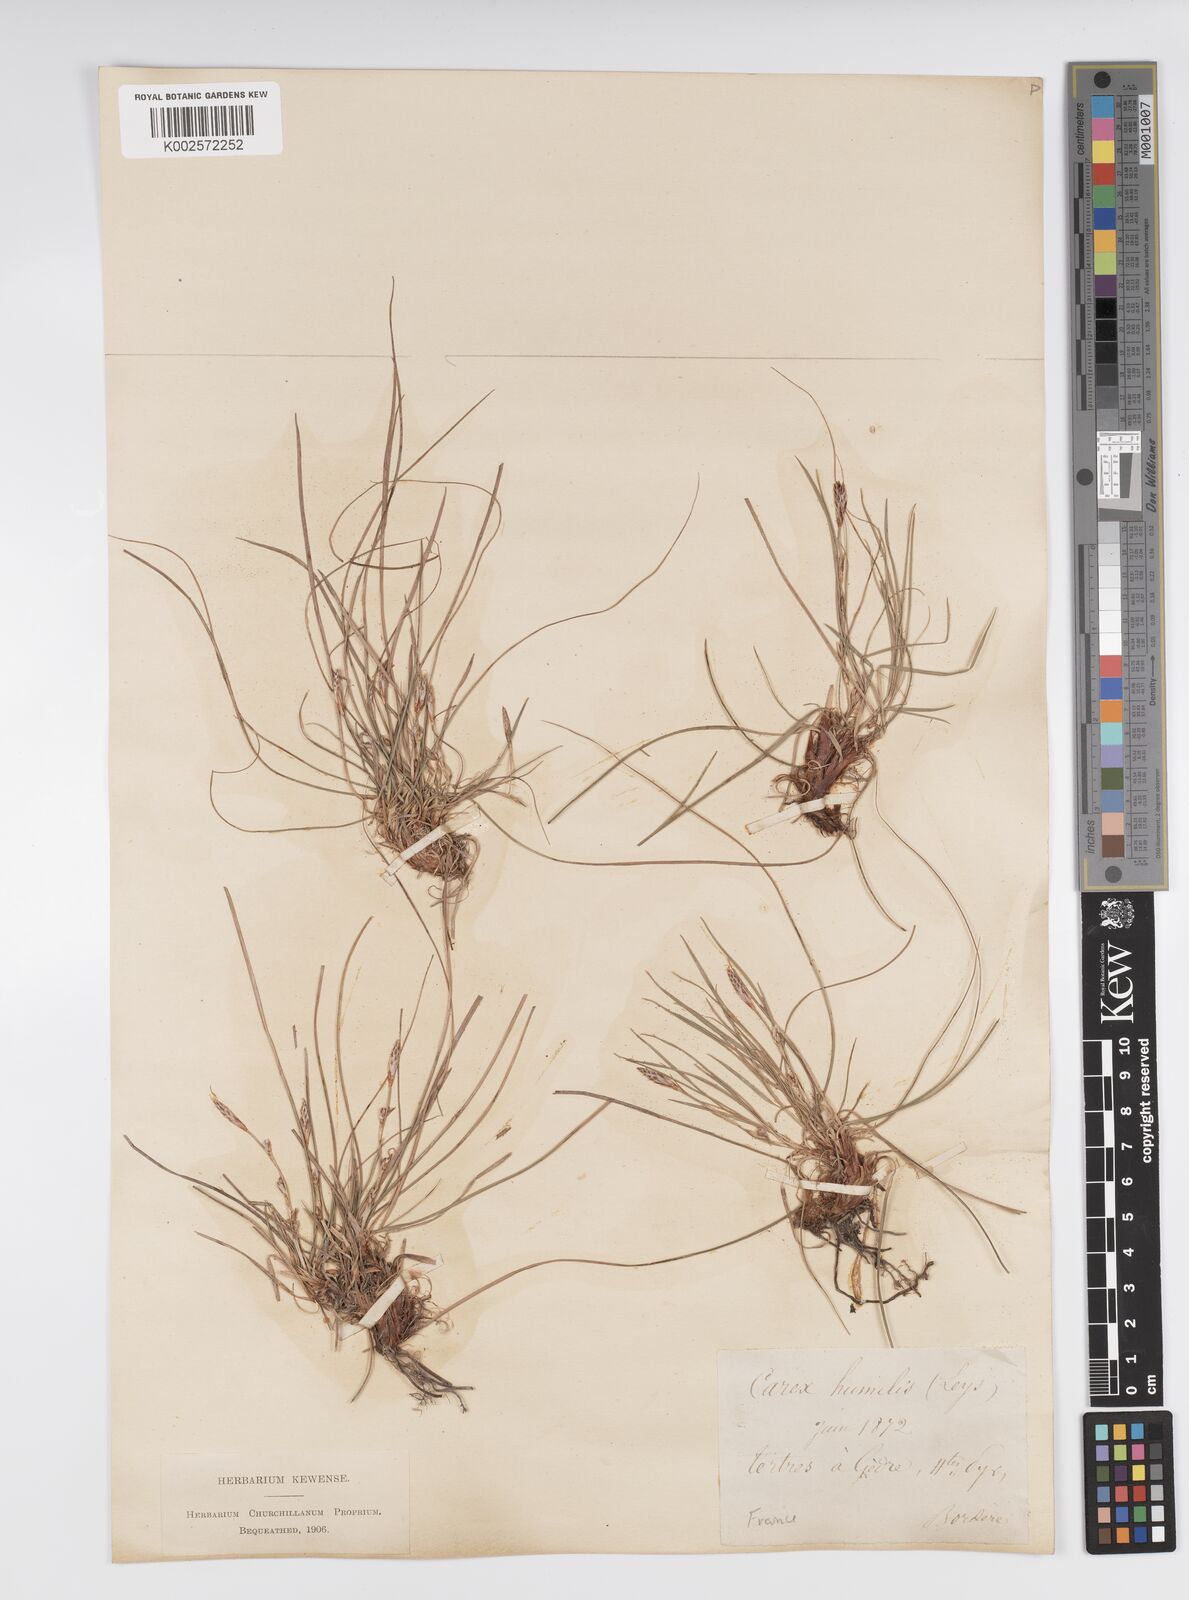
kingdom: Plantae
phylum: Tracheophyta
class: Liliopsida
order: Poales
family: Cyperaceae
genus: Carex
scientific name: Carex humilis
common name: Dwarf sedge
